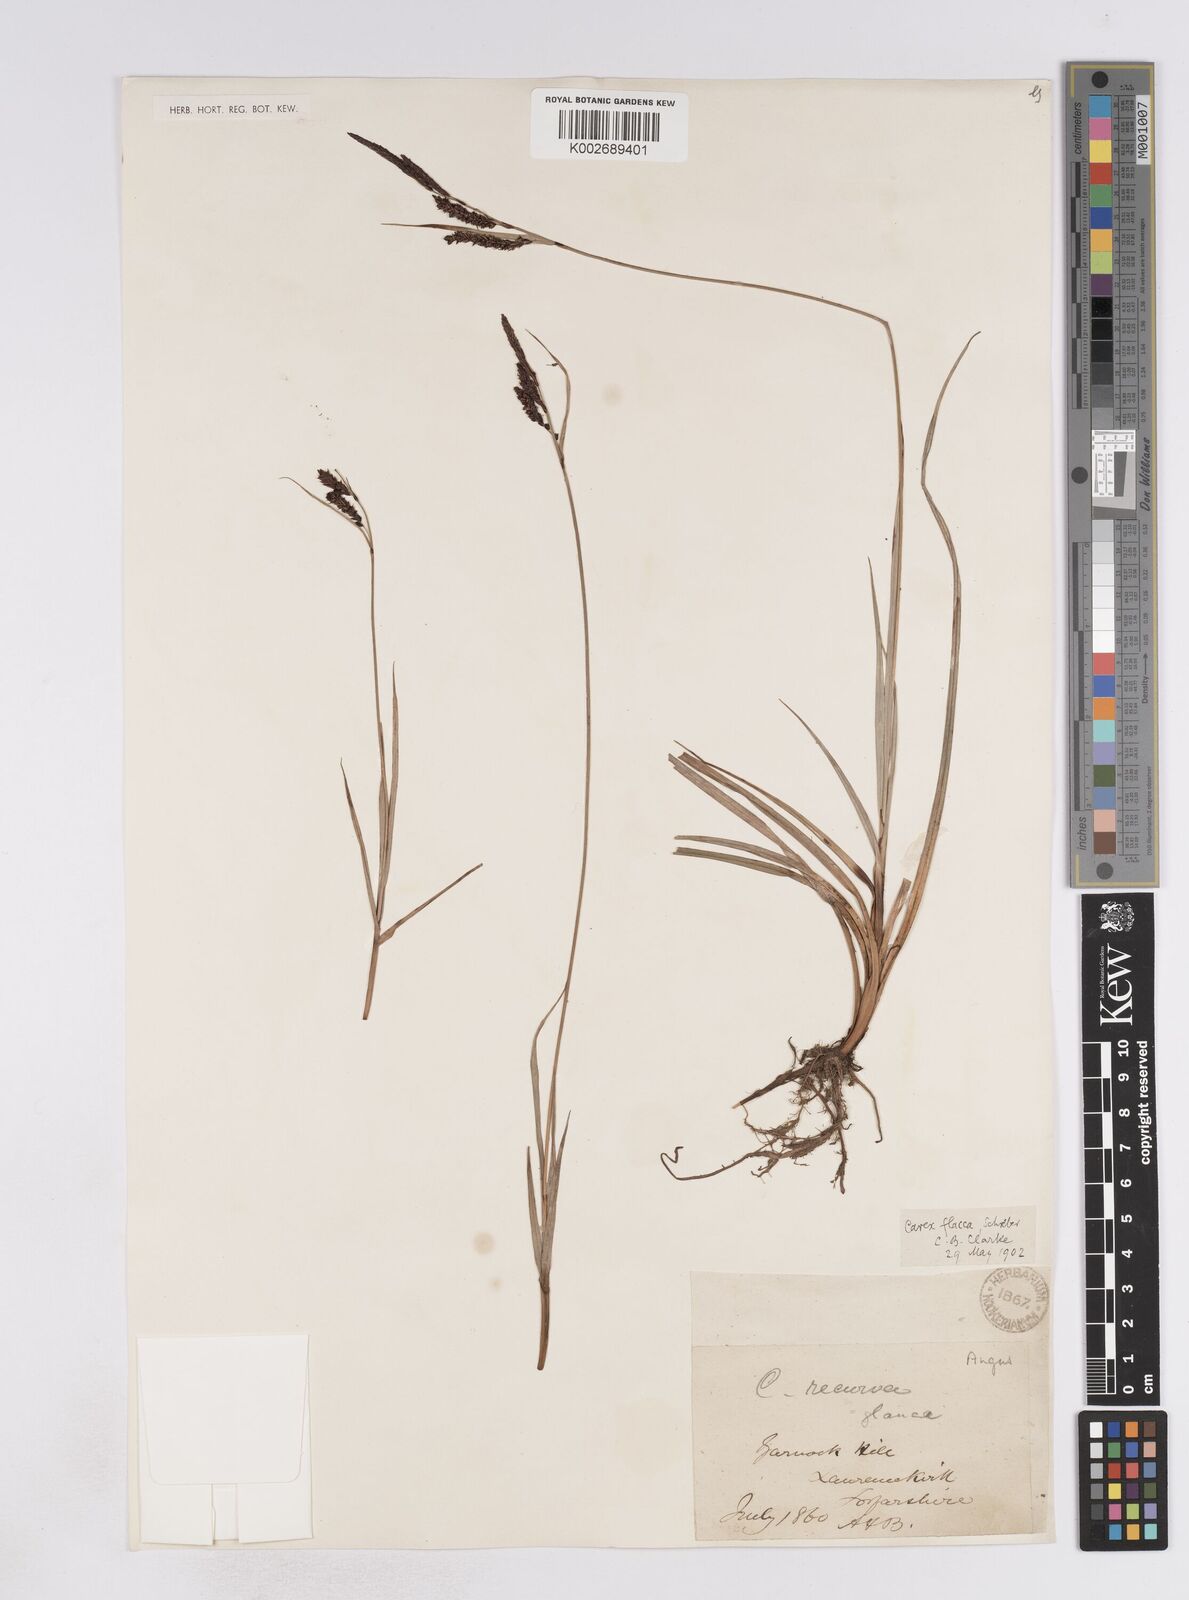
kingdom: Plantae
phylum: Tracheophyta
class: Liliopsida
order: Poales
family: Cyperaceae
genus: Carex
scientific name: Carex flacca
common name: Glaucous sedge
